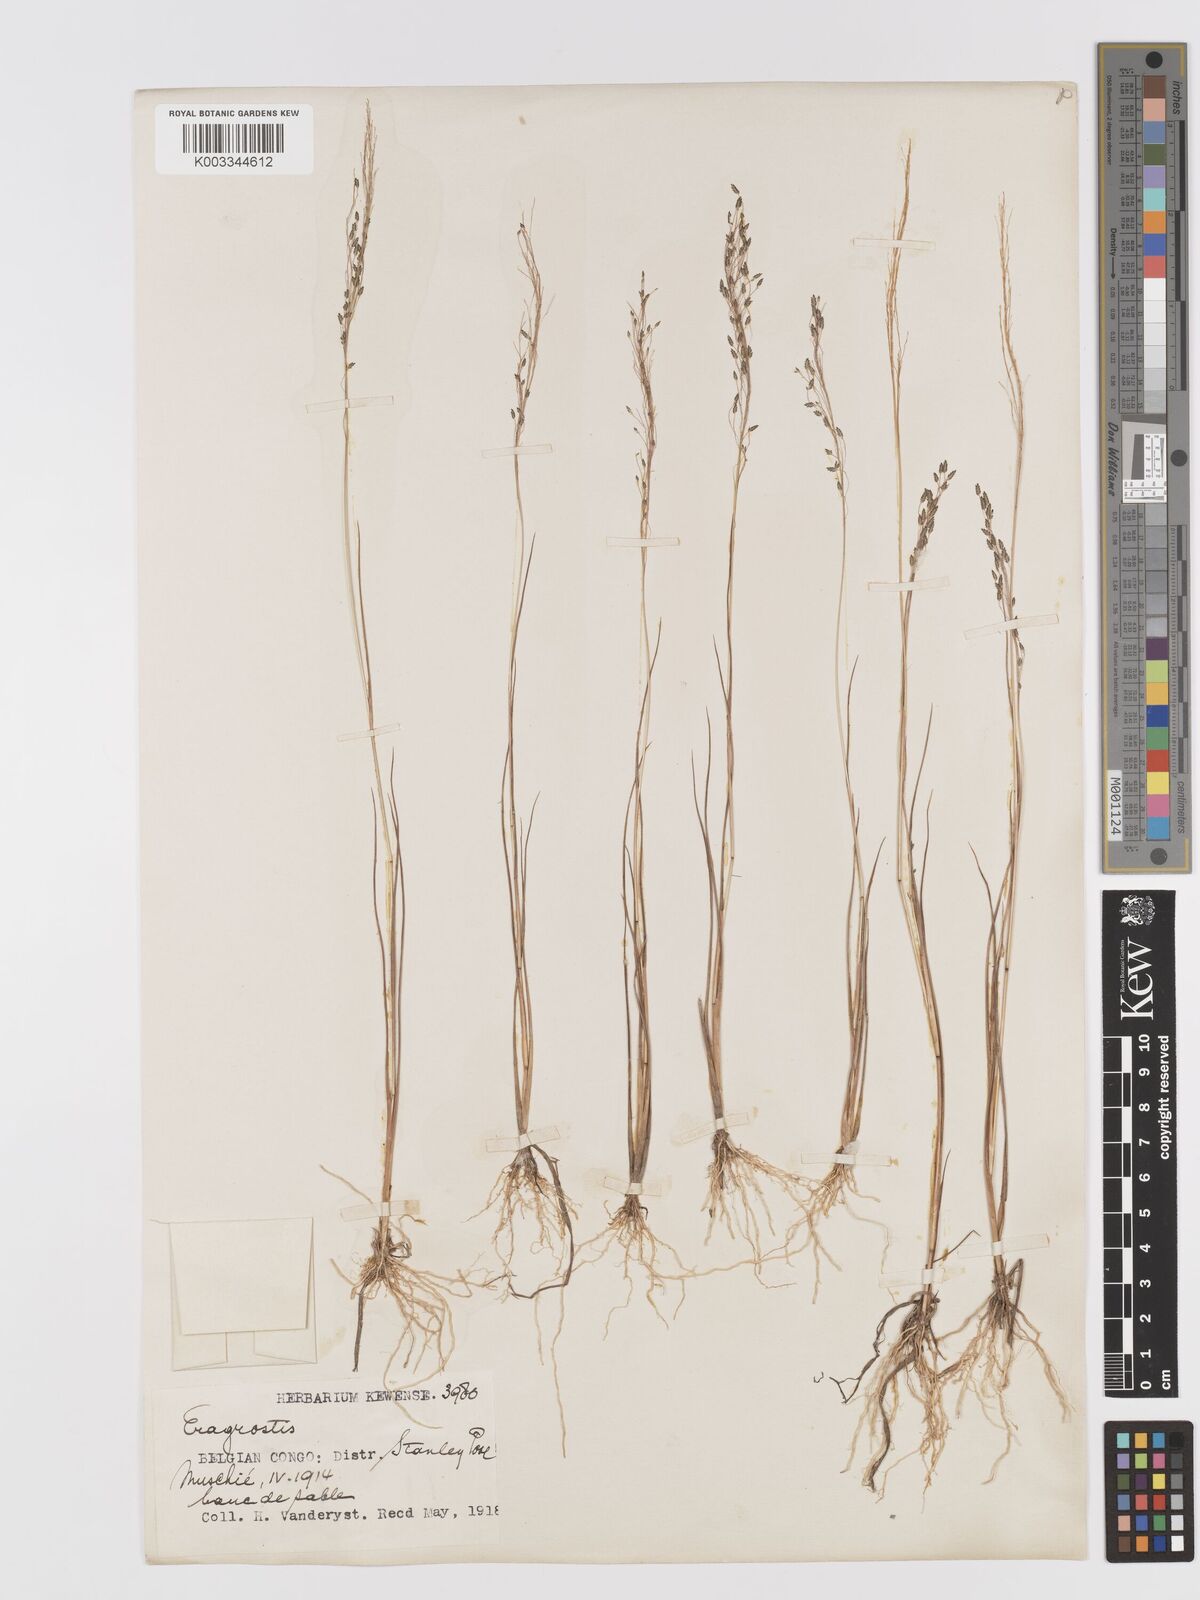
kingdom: Plantae
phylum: Tracheophyta
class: Liliopsida
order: Poales
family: Poaceae
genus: Eragrostis
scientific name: Eragrostis gangetica
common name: Slimflower lovegrass
